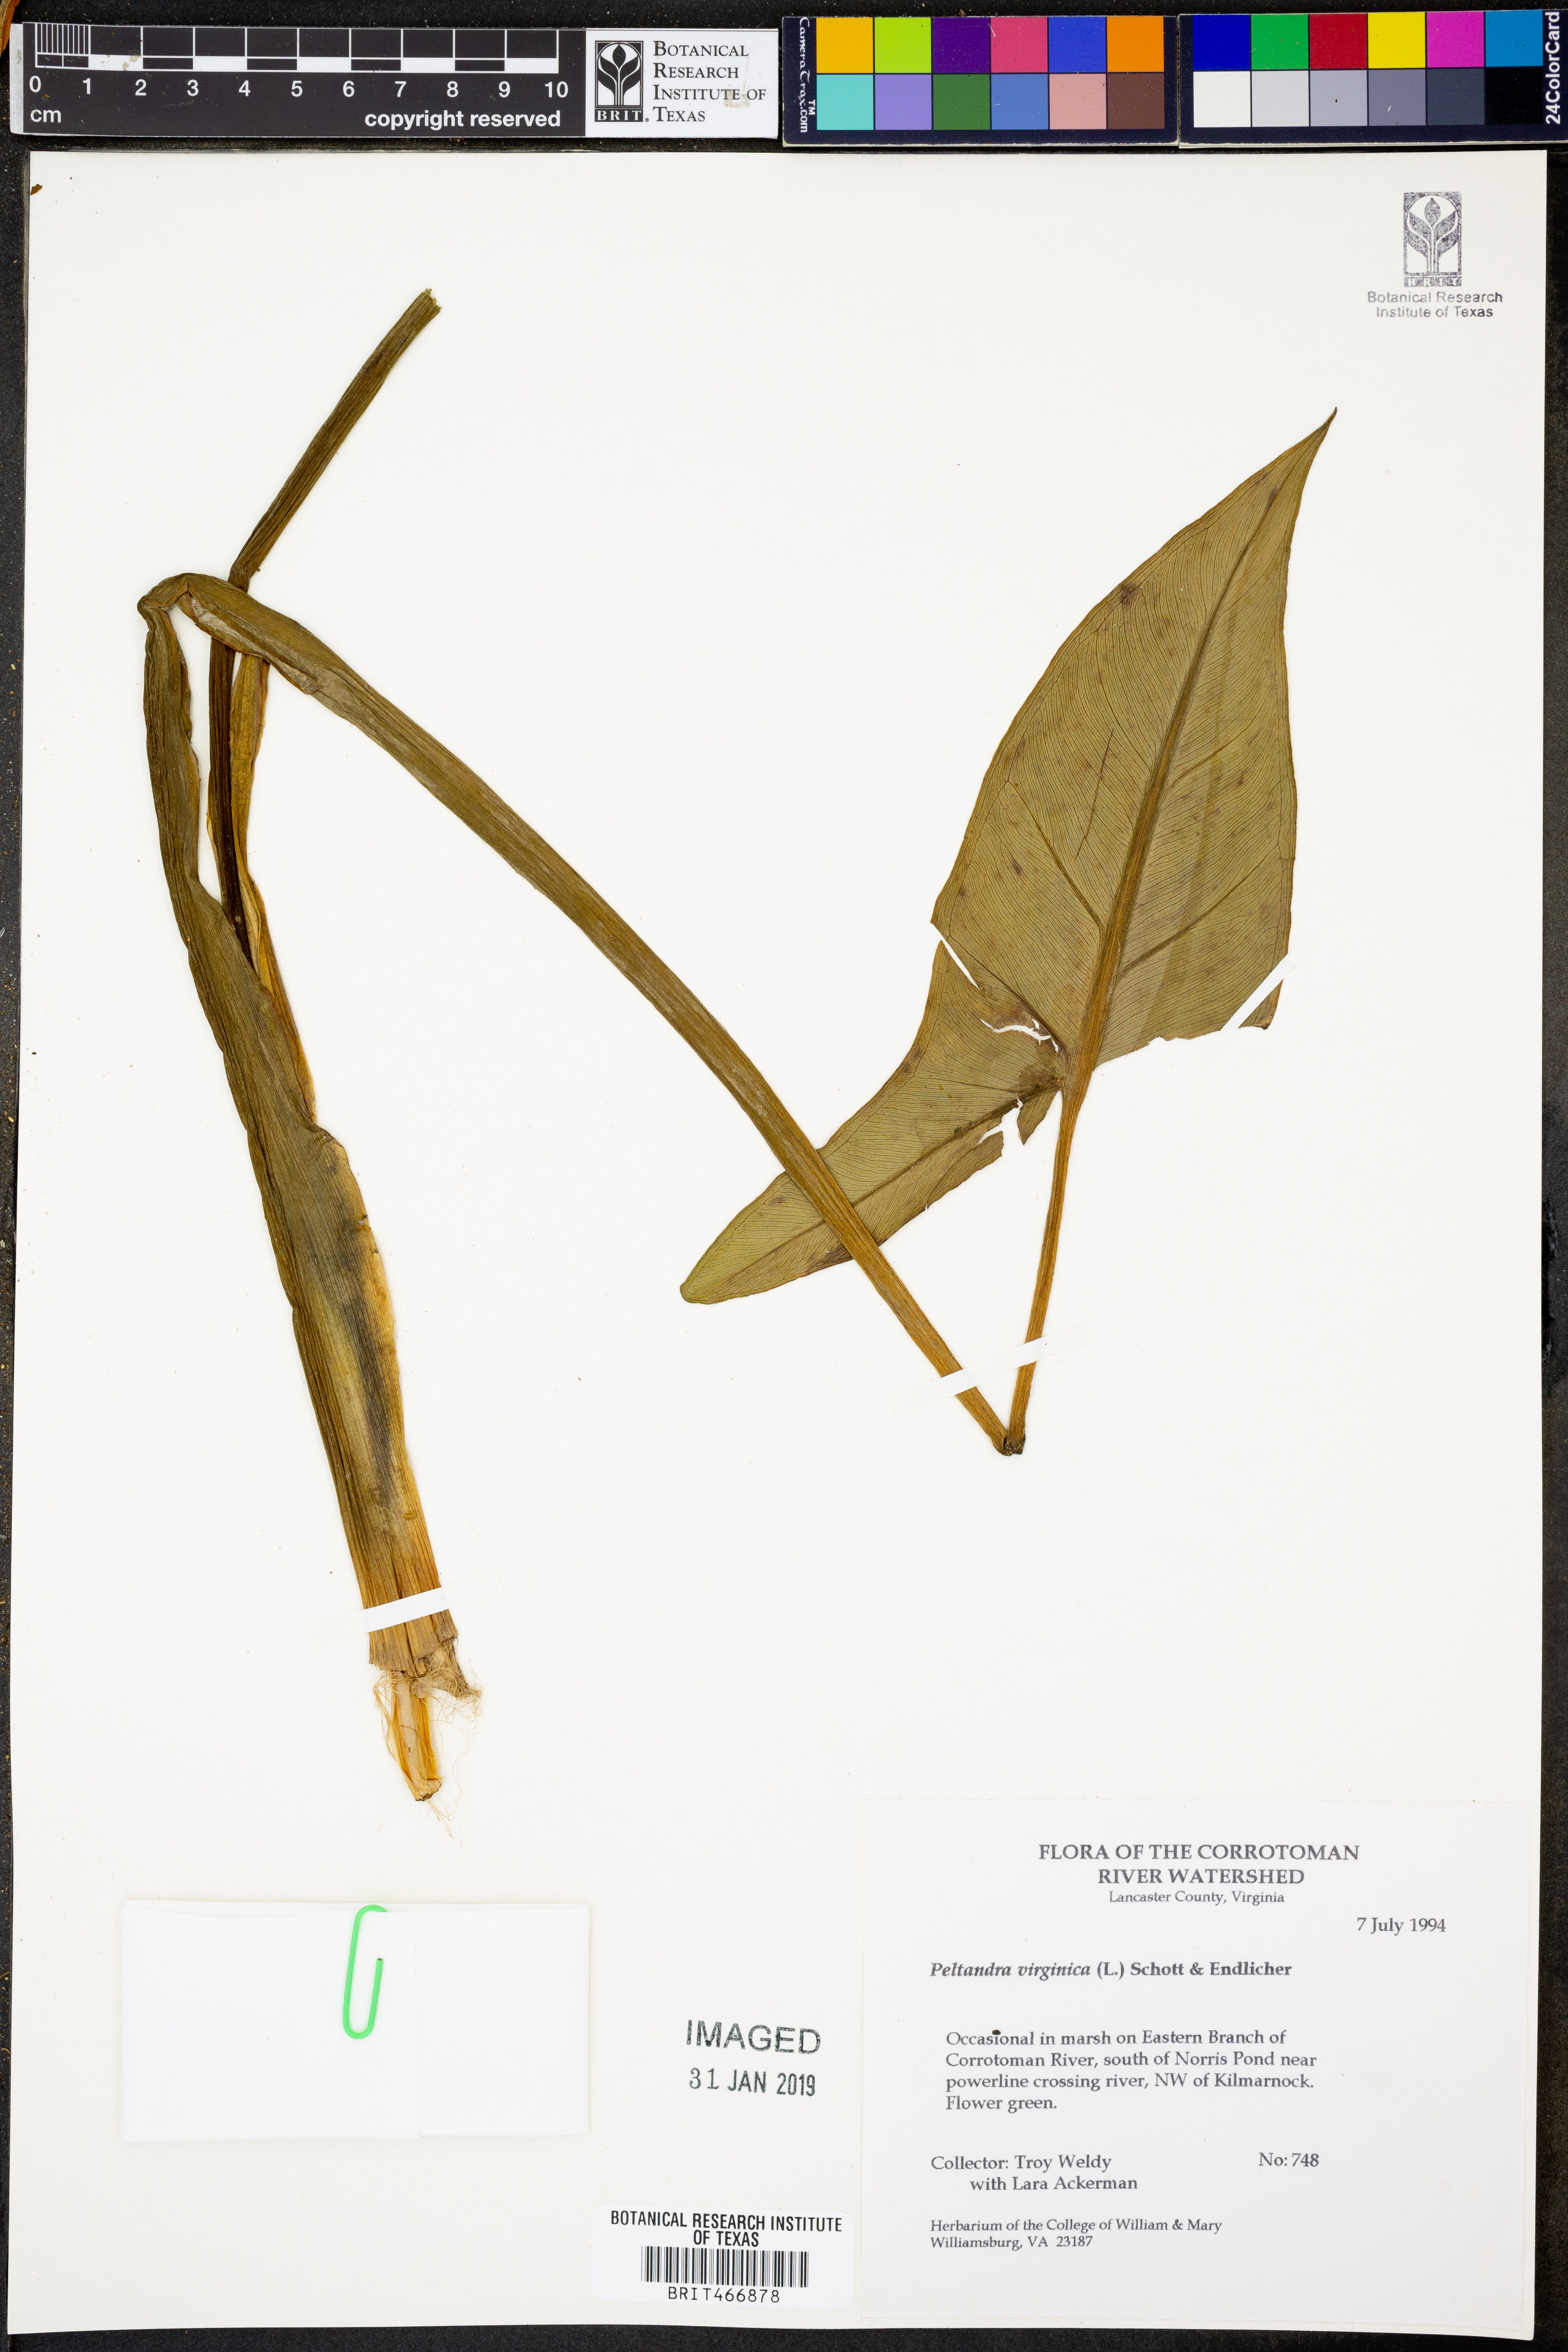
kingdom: Plantae
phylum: Tracheophyta
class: Liliopsida
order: Alismatales
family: Araceae
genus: Peltandra
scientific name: Peltandra virginica
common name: Arrow arum
